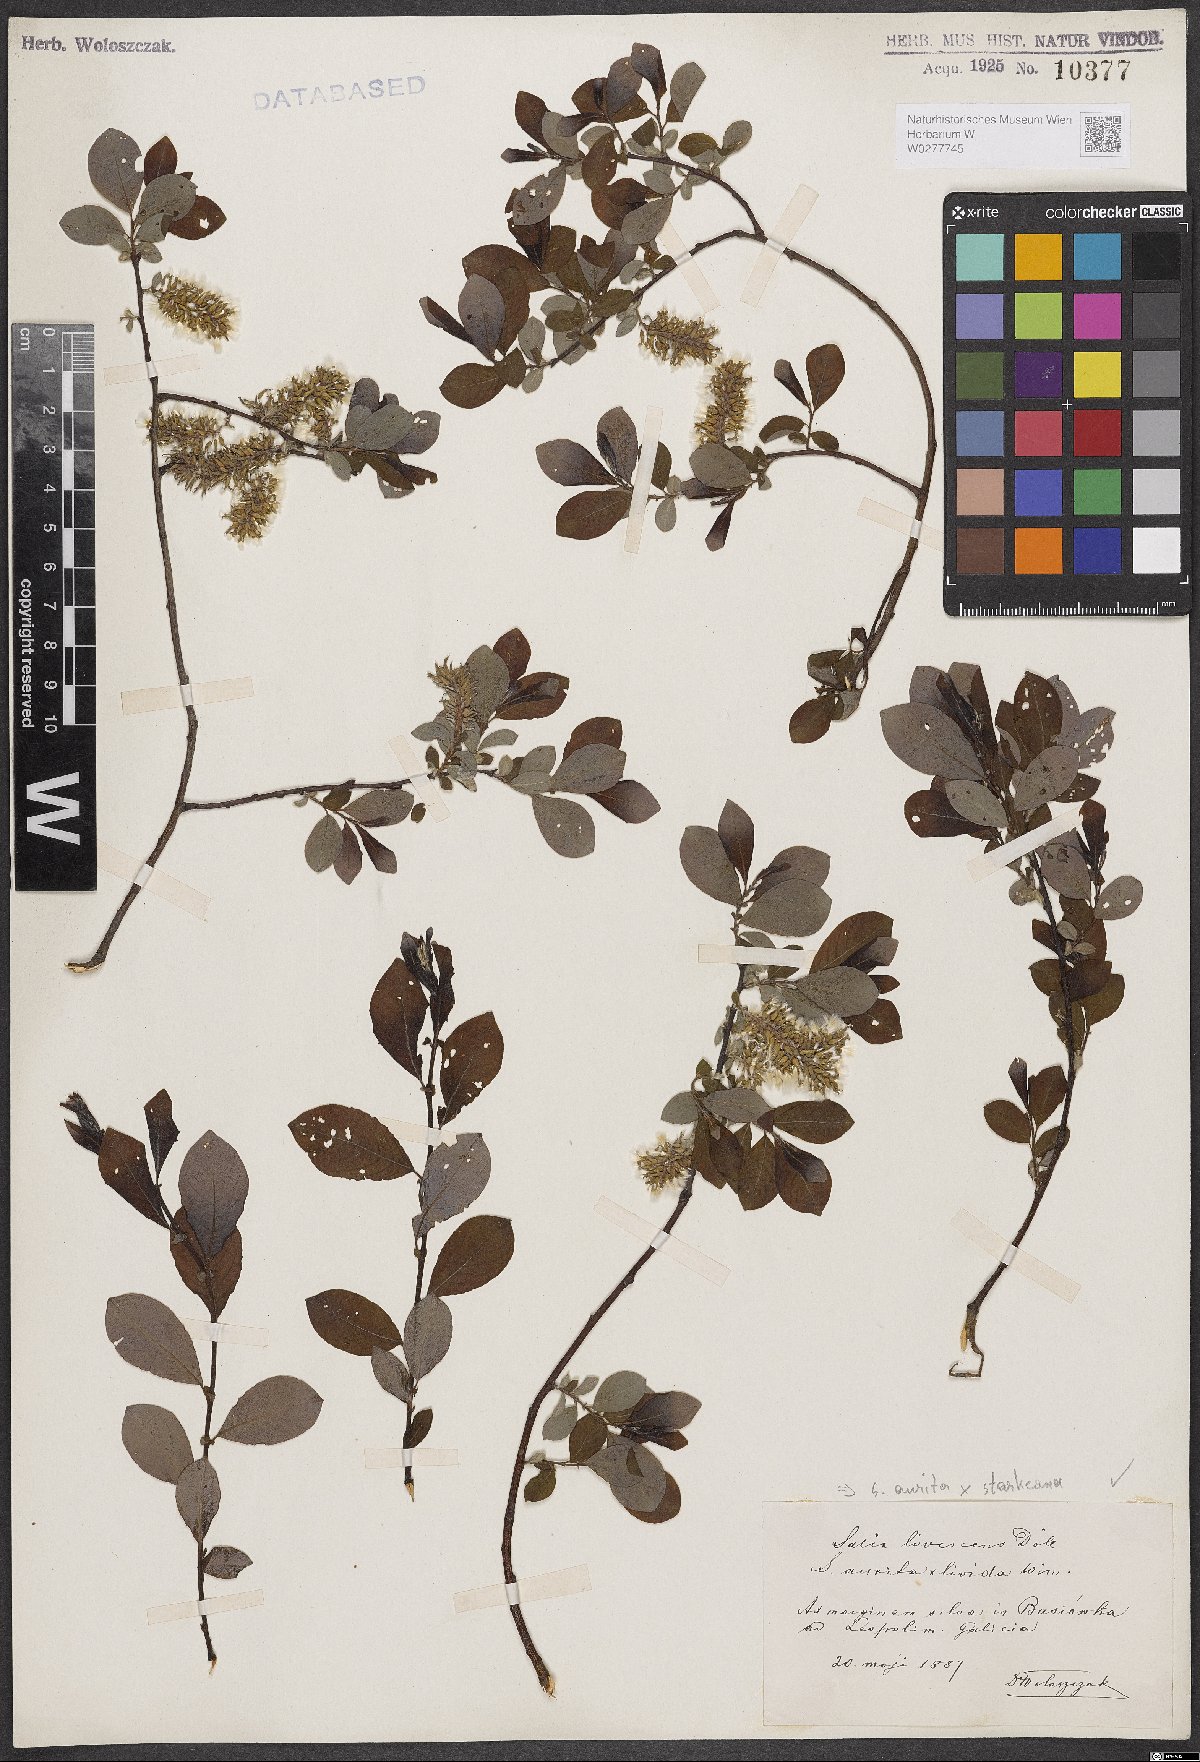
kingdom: Plantae
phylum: Tracheophyta
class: Magnoliopsida
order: Malpighiales
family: Salicaceae
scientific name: Salicaceae
